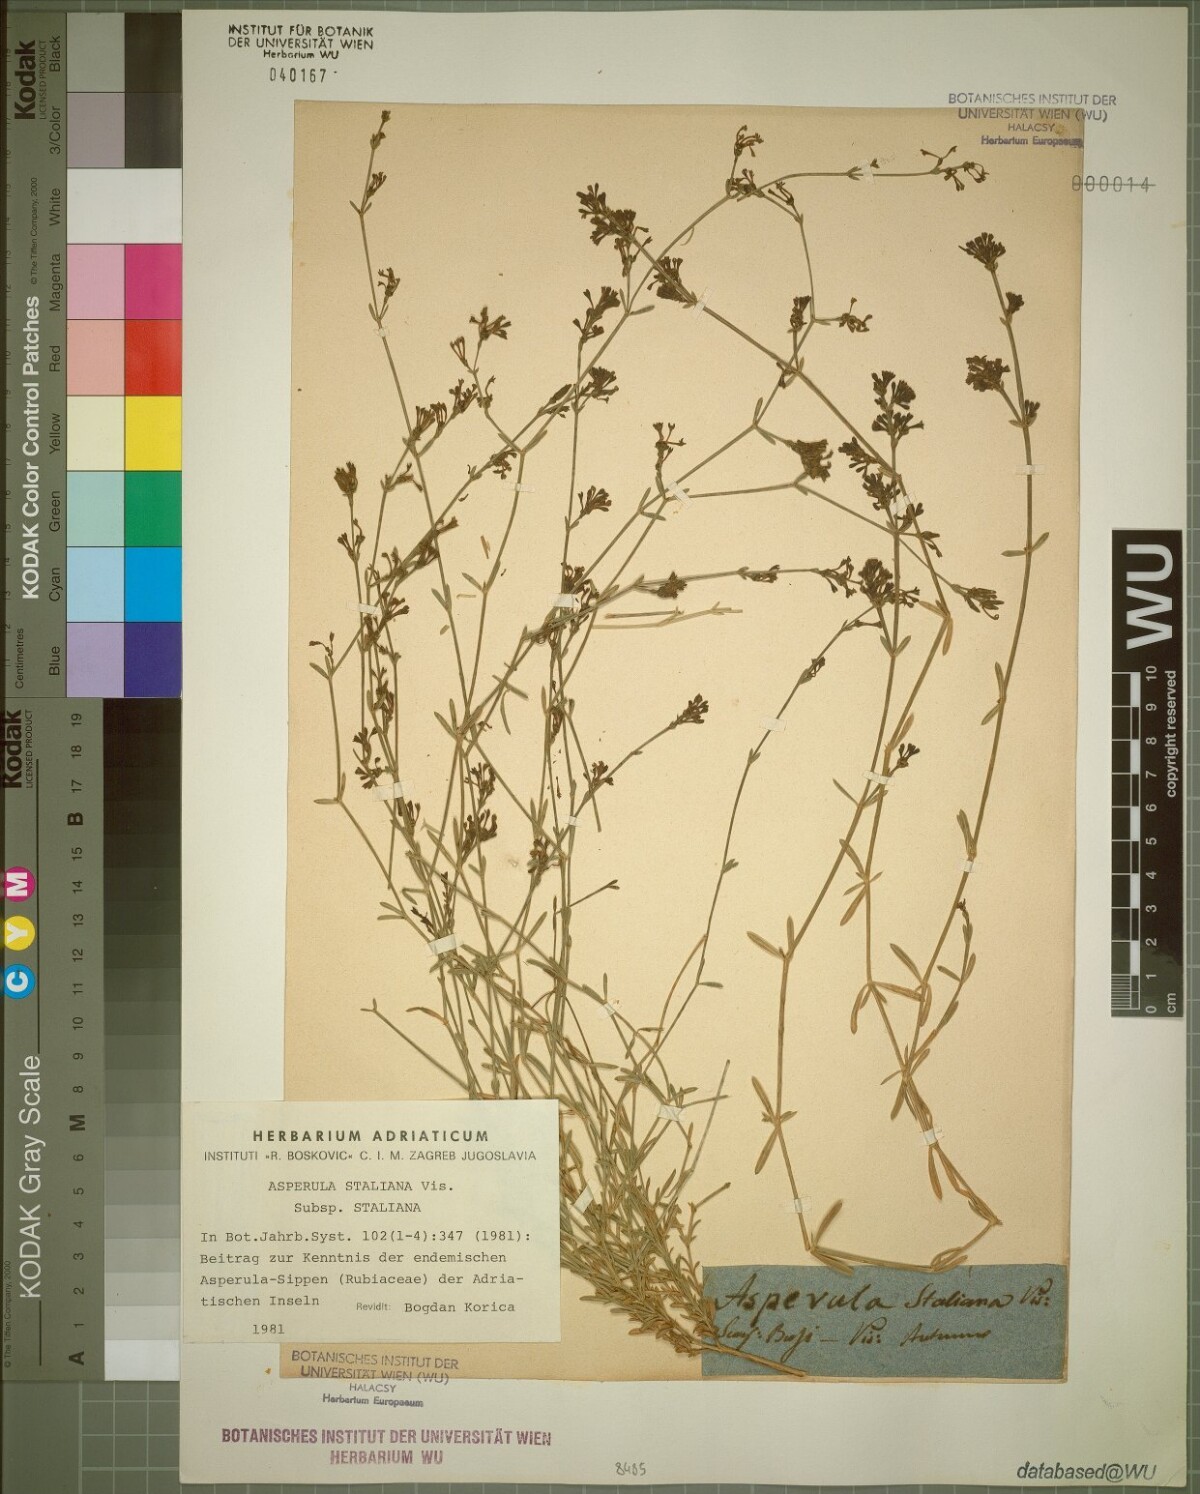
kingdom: Plantae
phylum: Tracheophyta
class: Magnoliopsida
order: Gentianales
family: Rubiaceae
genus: Cynanchica
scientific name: Cynanchica staliana
